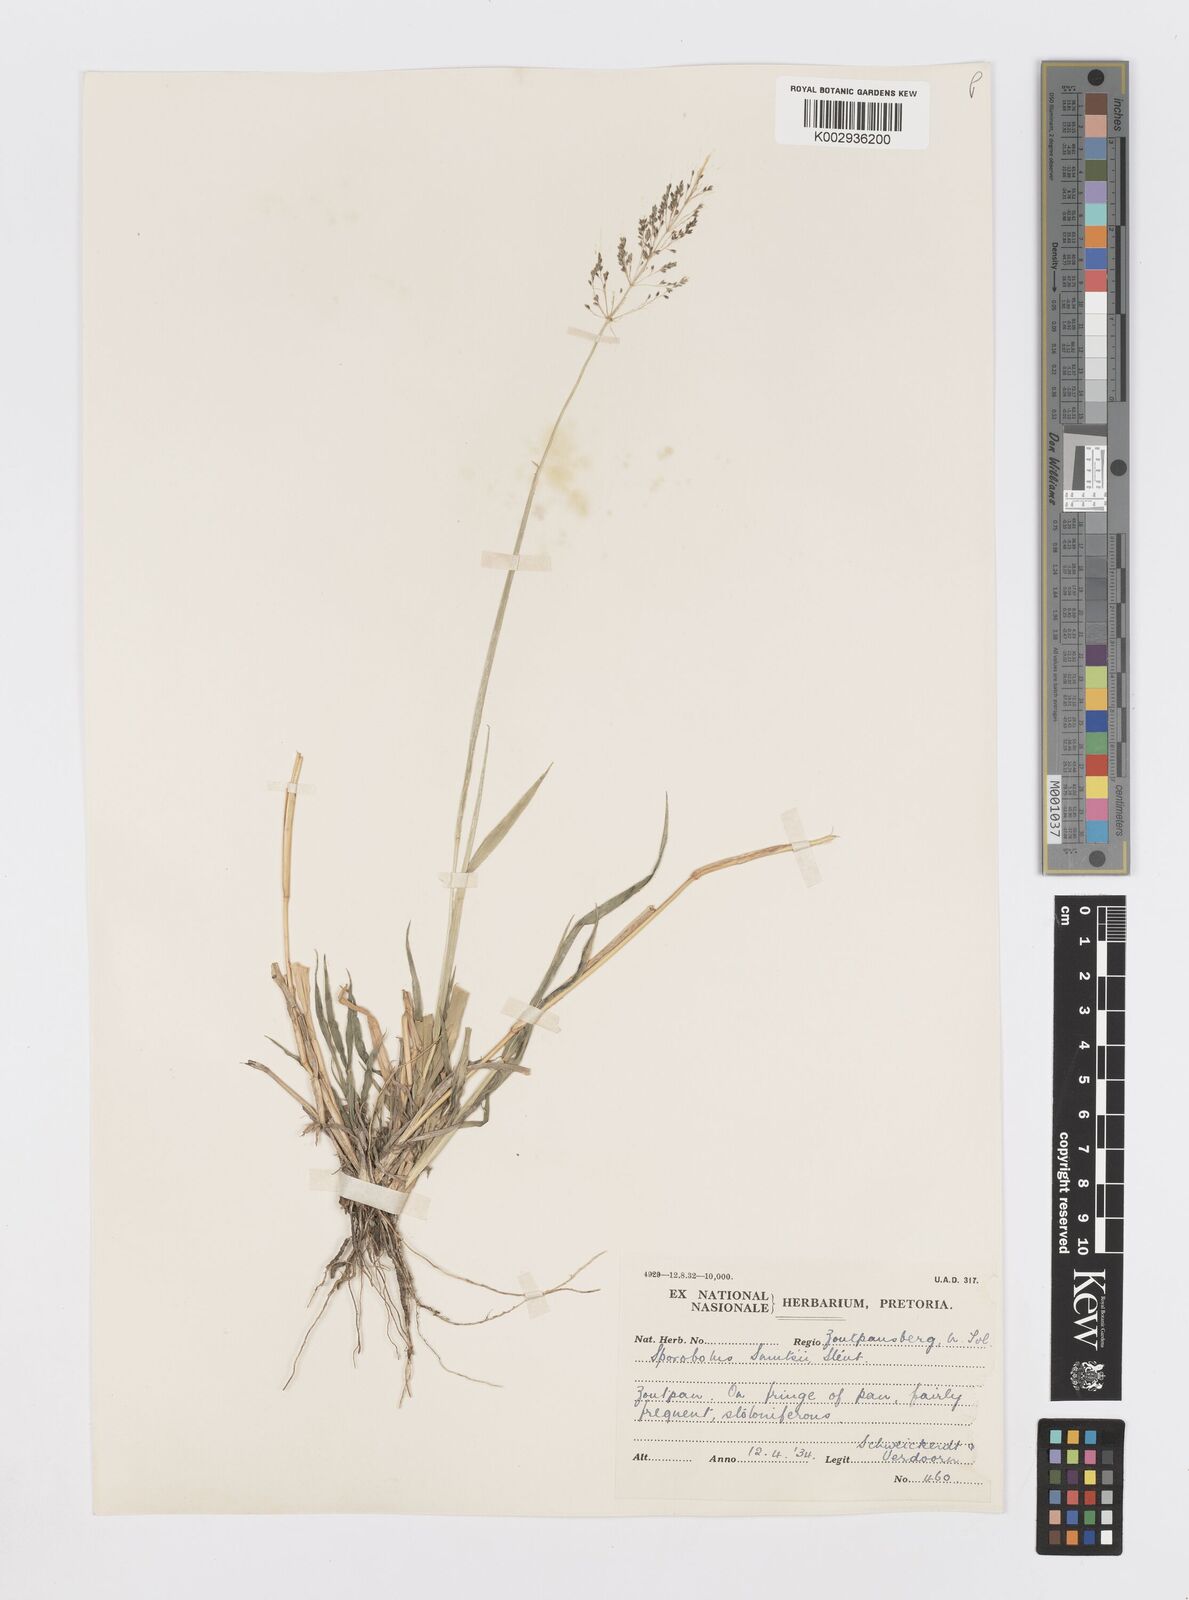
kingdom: Plantae
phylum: Tracheophyta
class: Liliopsida
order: Poales
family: Poaceae
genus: Sporobolus
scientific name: Sporobolus ioclados
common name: Pan dropseed
